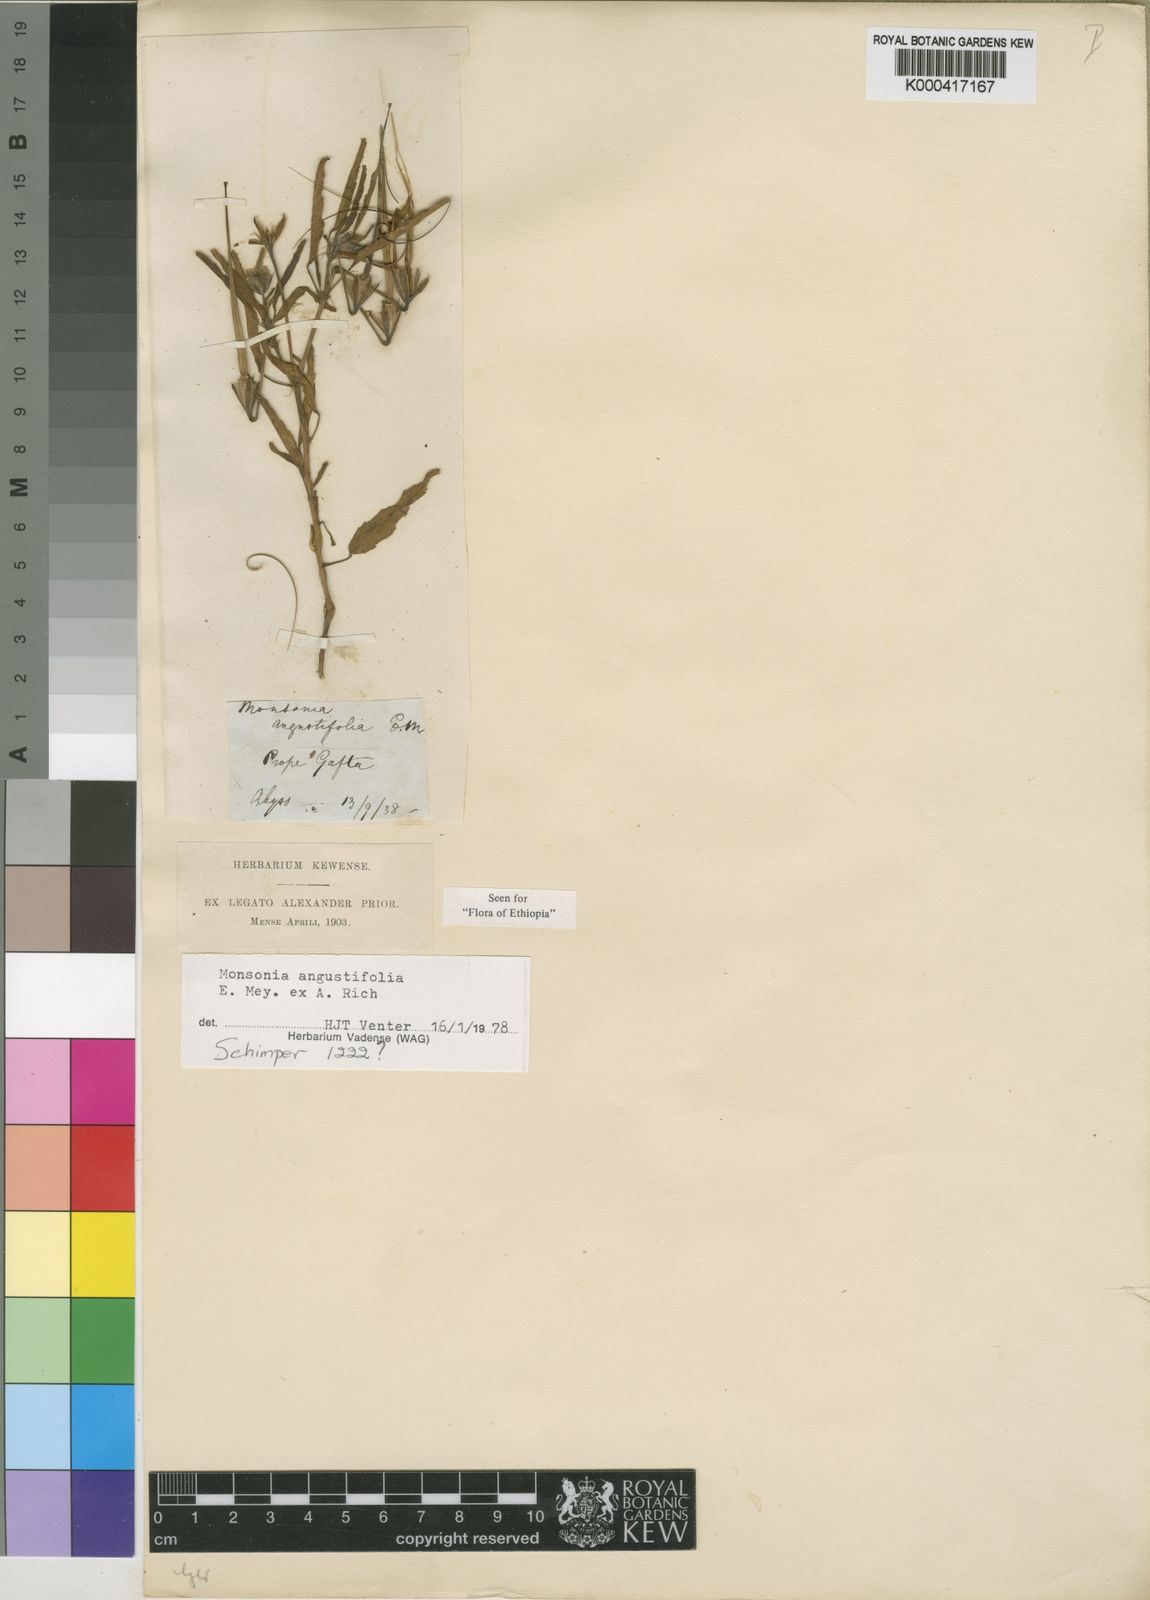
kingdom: Plantae
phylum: Tracheophyta
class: Magnoliopsida
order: Geraniales
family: Geraniaceae
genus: Monsonia
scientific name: Monsonia angustifolia
